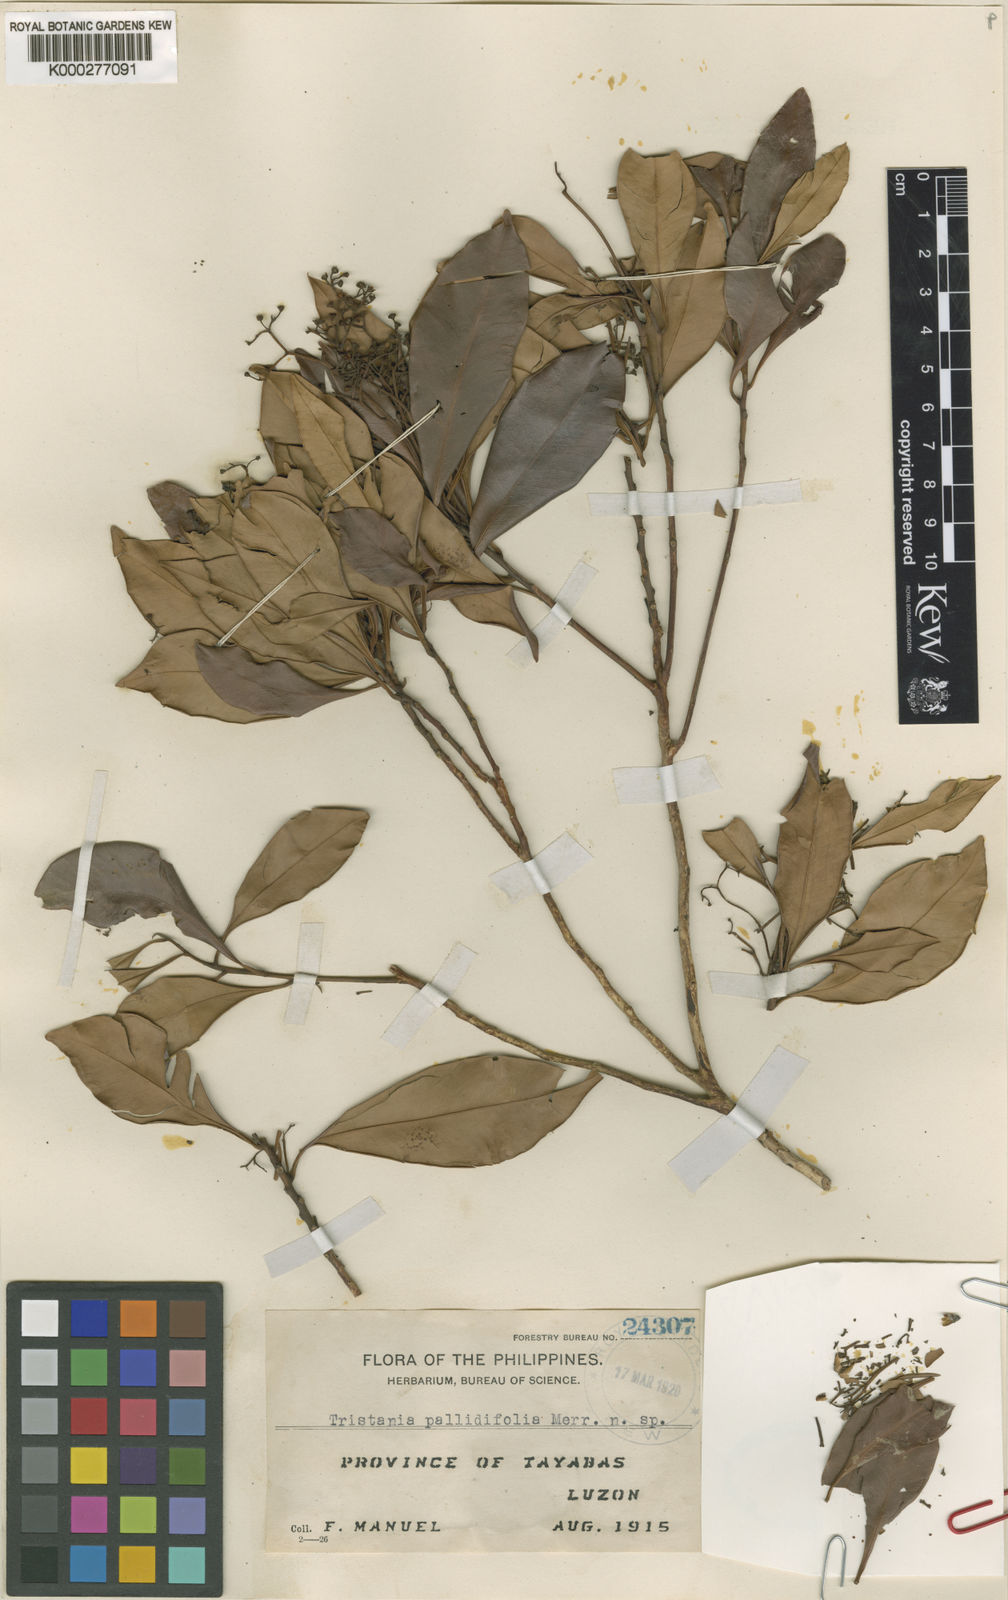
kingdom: Plantae
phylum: Tracheophyta
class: Magnoliopsida
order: Myrtales
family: Myrtaceae
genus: Tristaniopsis
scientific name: Tristaniopsis
